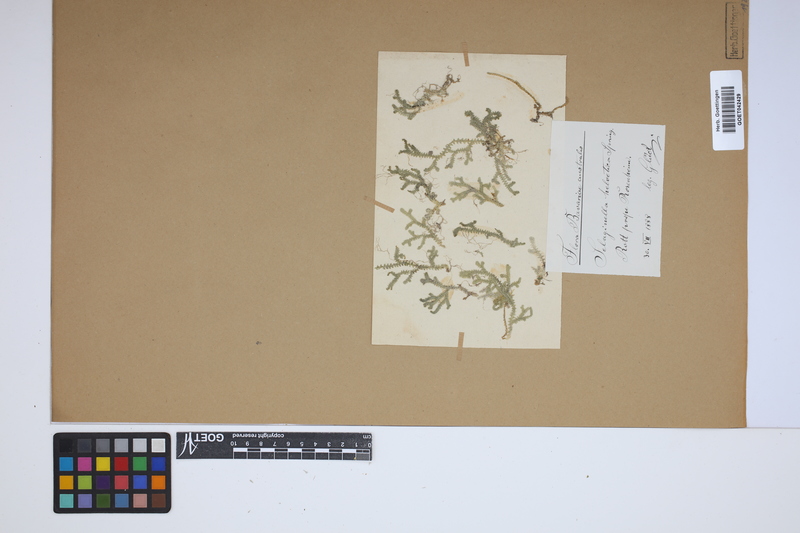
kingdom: Plantae
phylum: Tracheophyta
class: Lycopodiopsida
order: Selaginellales
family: Selaginellaceae
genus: Selaginella
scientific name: Selaginella helvetica
